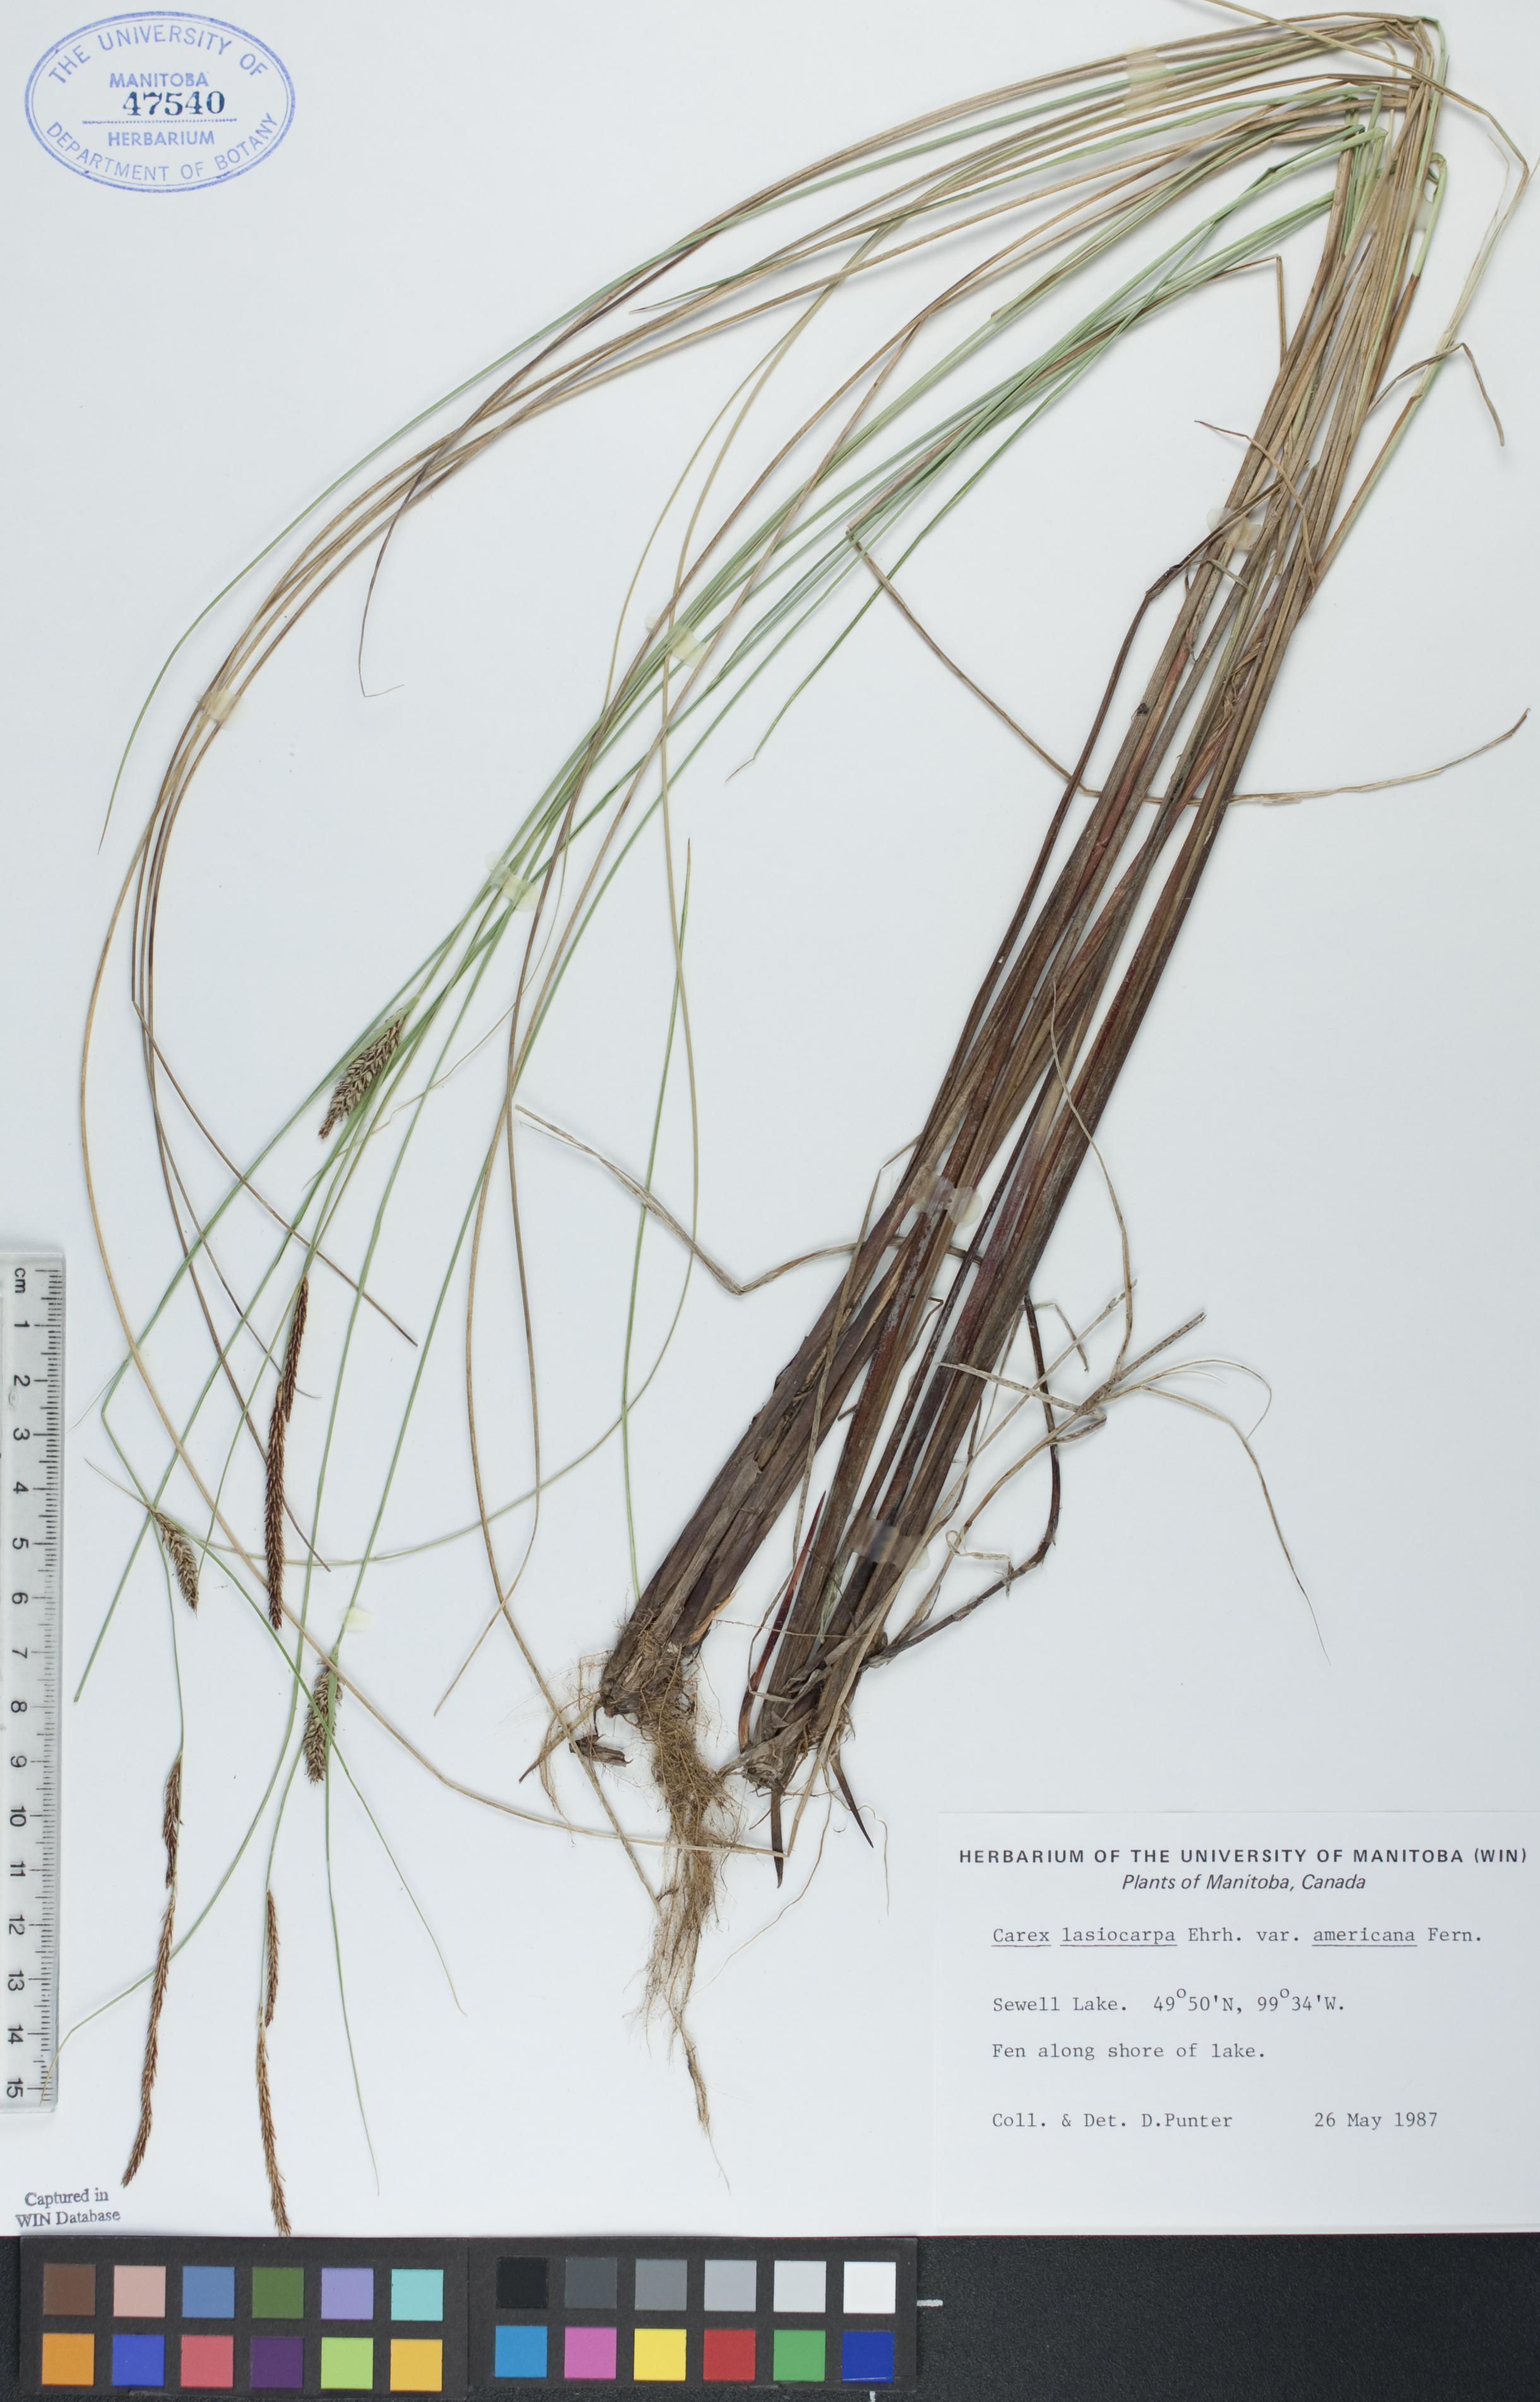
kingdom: Plantae
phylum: Tracheophyta
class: Liliopsida
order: Poales
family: Cyperaceae
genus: Carex
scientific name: Carex lasiocarpa
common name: Slender sedge
